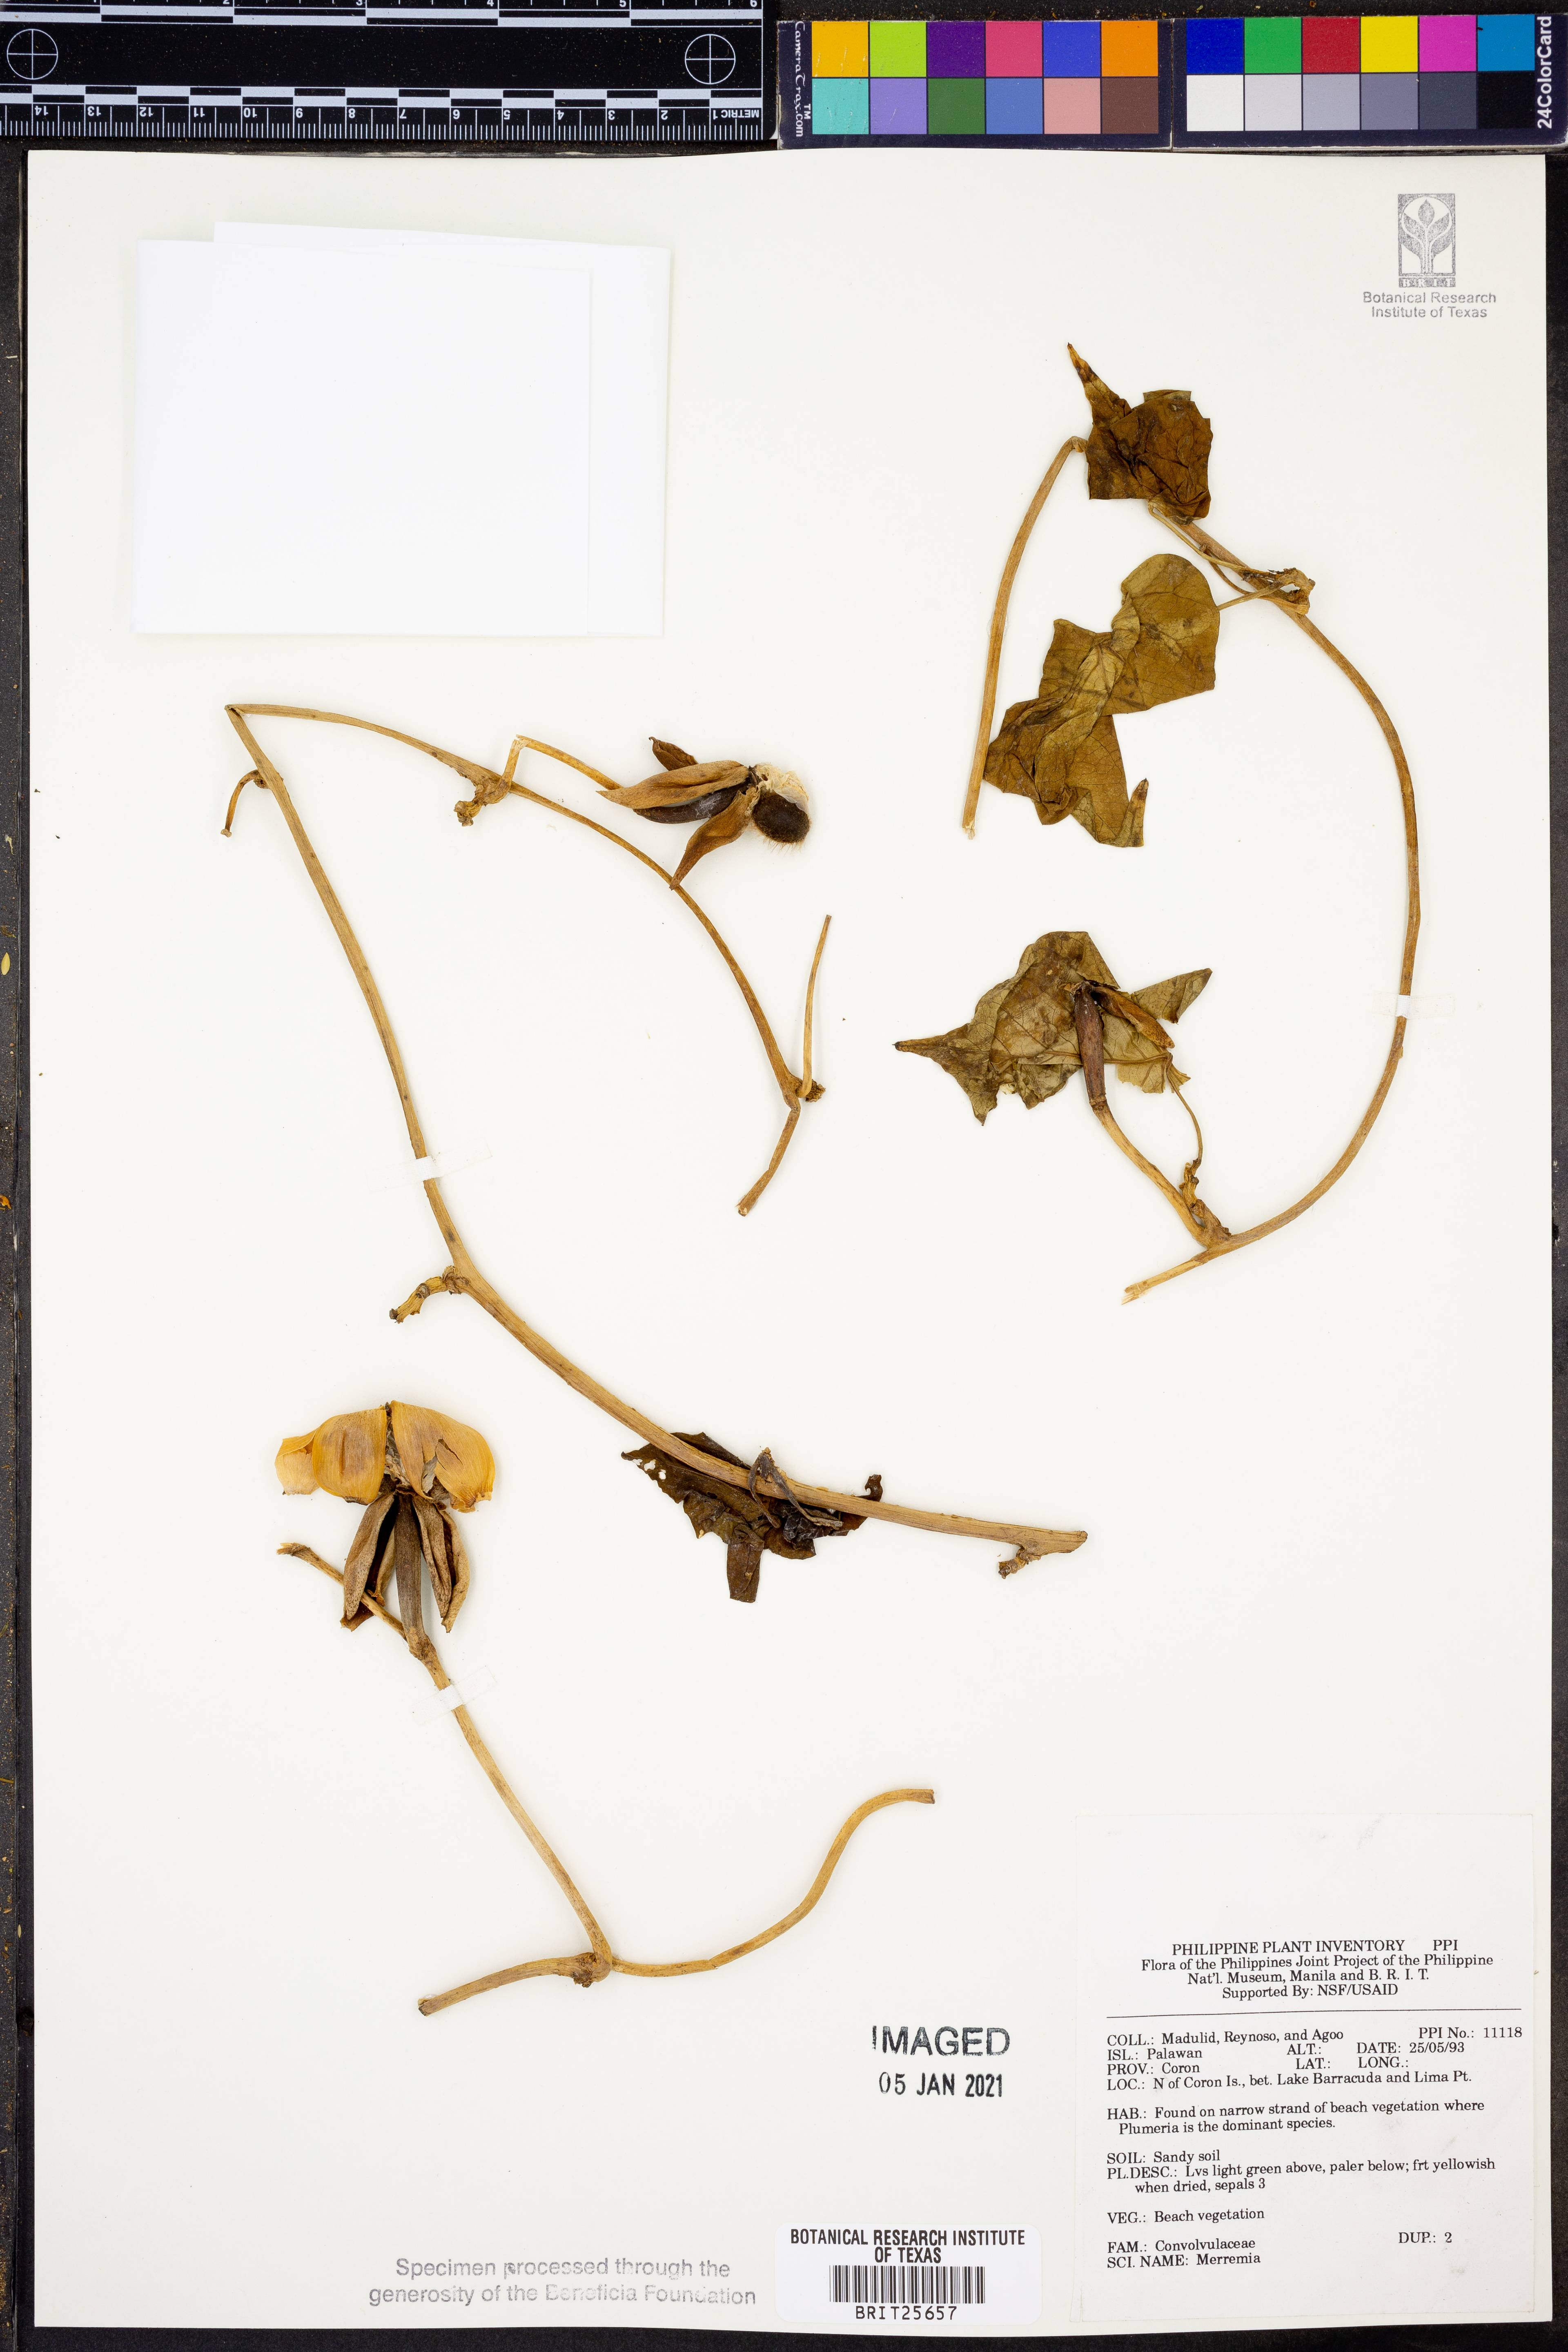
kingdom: Plantae
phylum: Tracheophyta
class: Magnoliopsida
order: Solanales
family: Convolvulaceae
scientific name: Convolvulaceae
